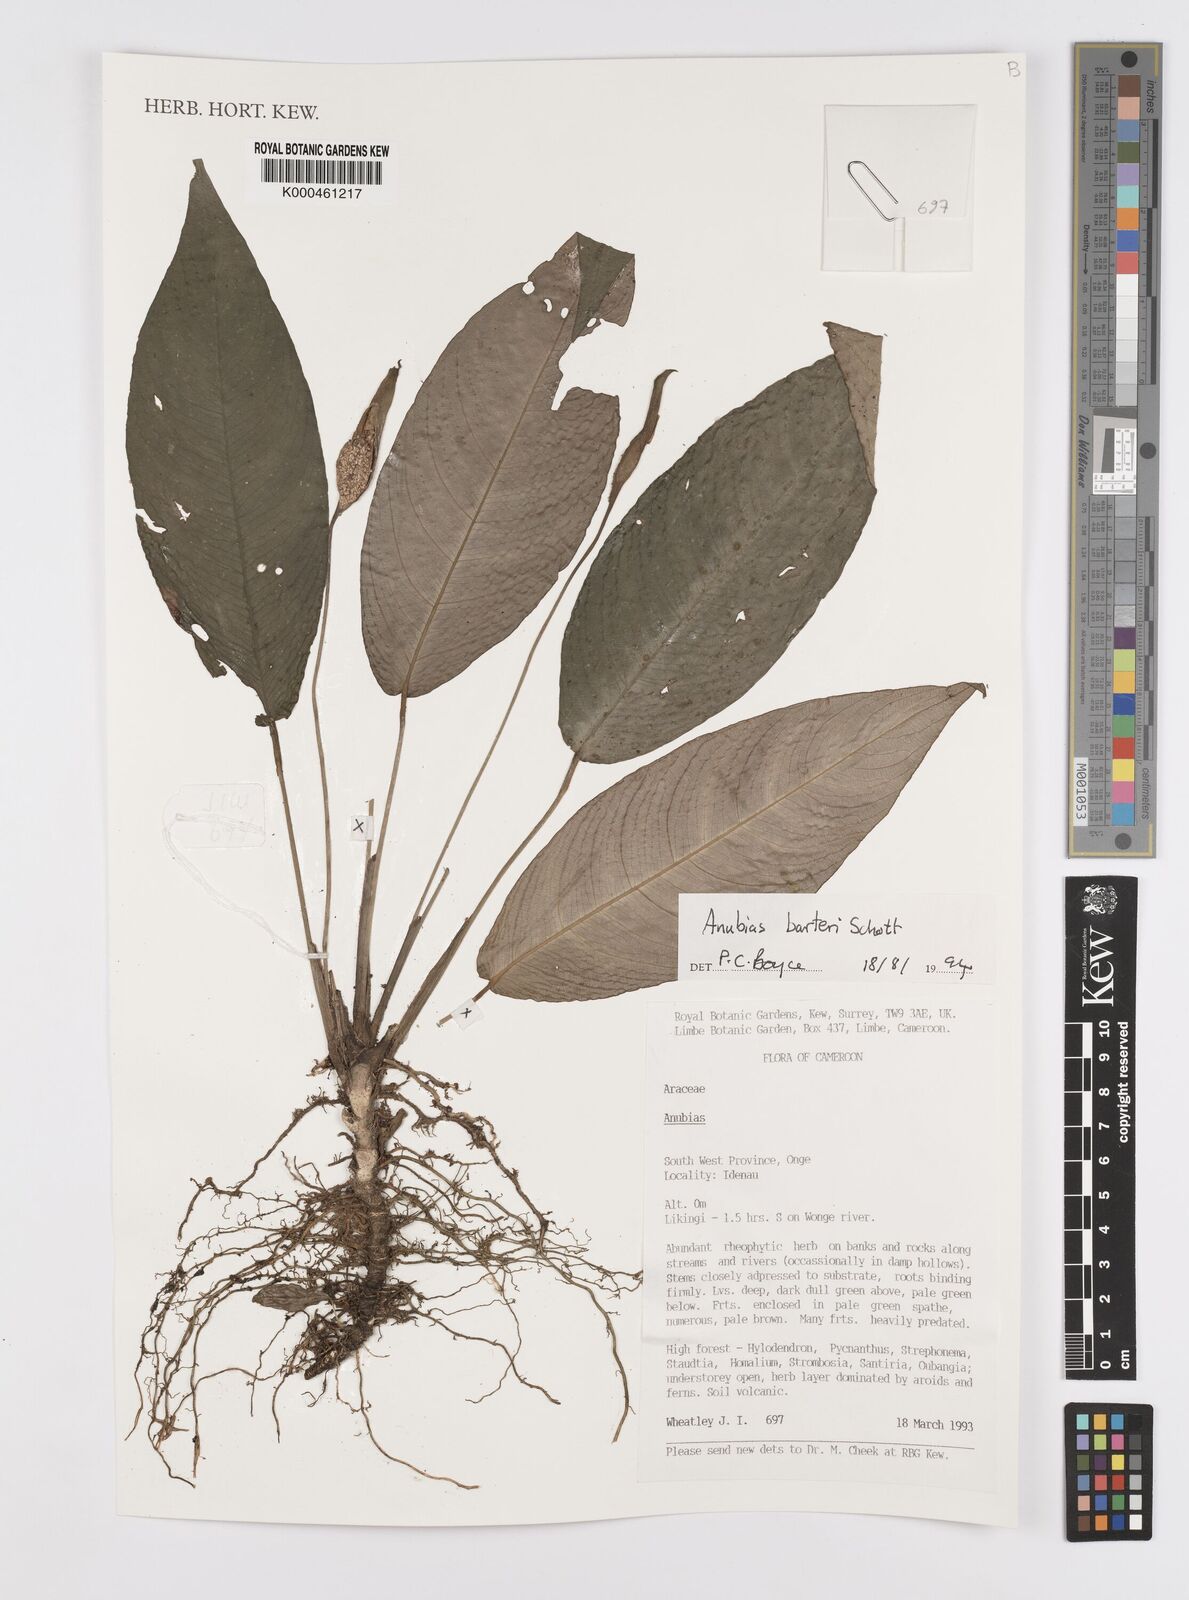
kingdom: Plantae
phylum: Tracheophyta
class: Liliopsida
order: Alismatales
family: Araceae
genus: Anubias
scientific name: Anubias barteri
